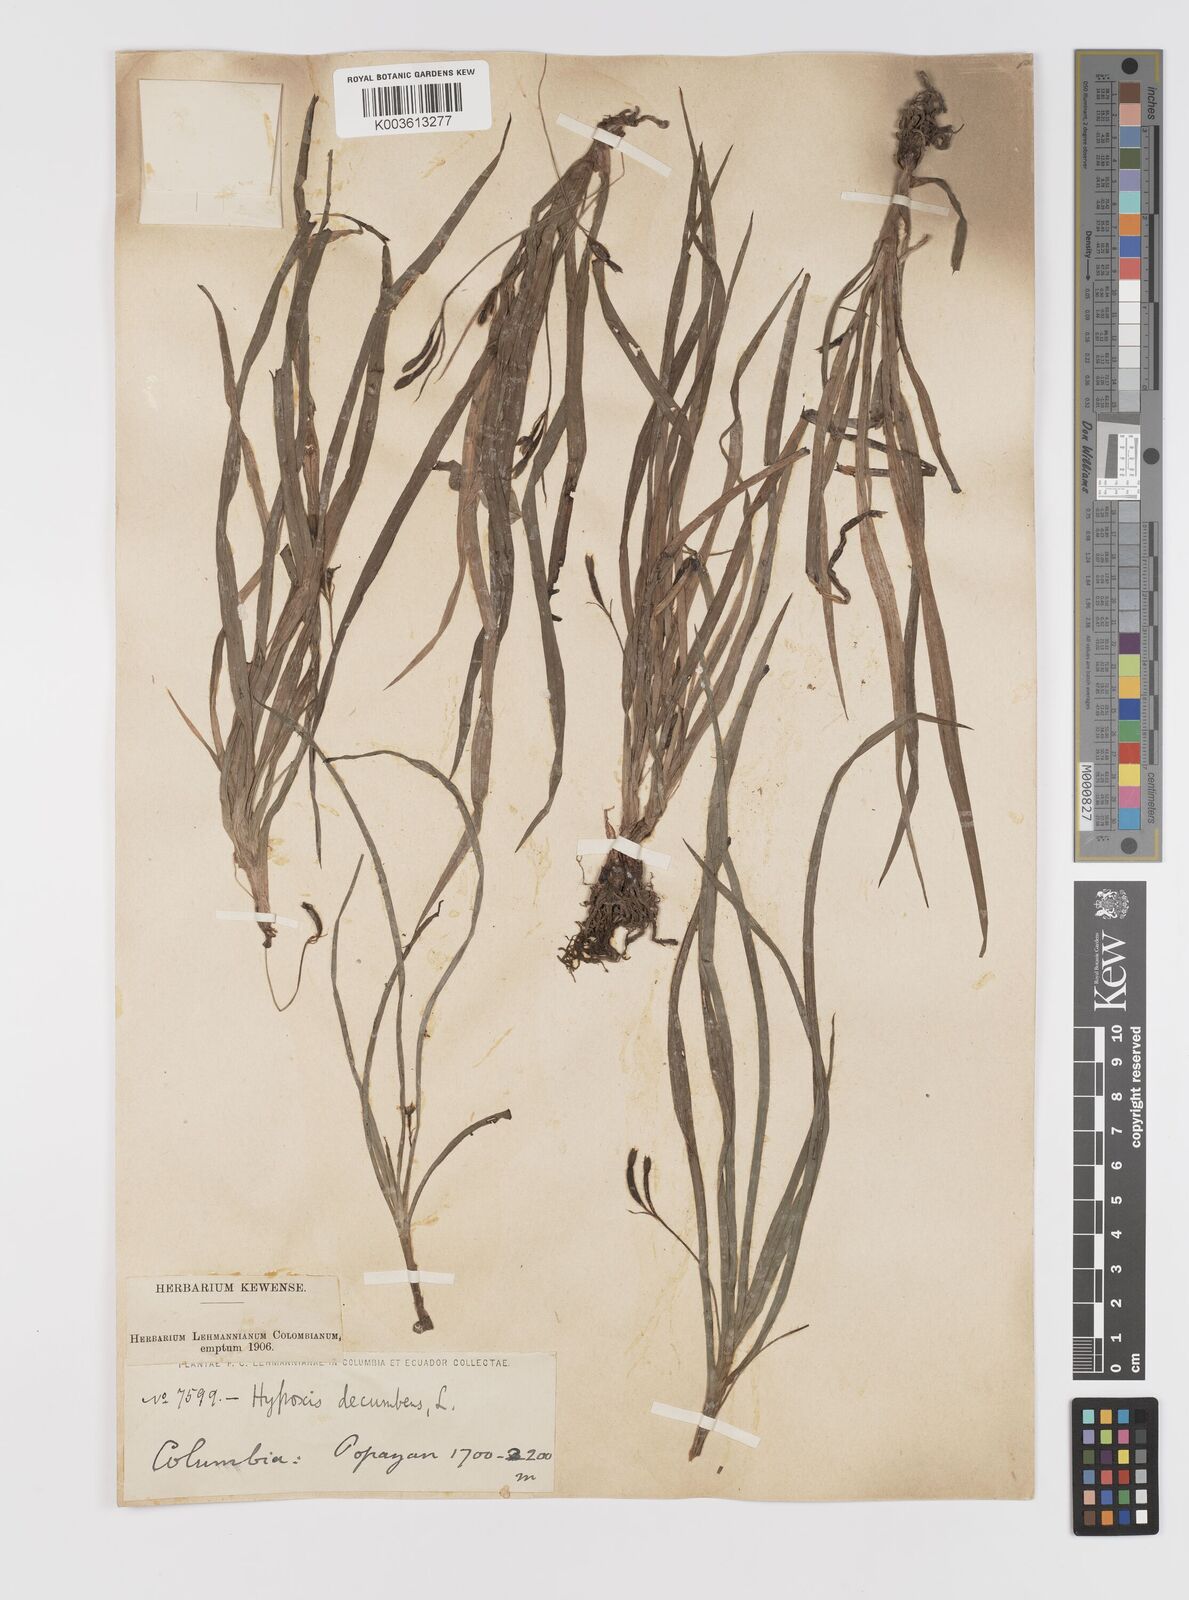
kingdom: Plantae
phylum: Tracheophyta
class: Liliopsida
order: Asparagales
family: Hypoxidaceae
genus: Hypoxis
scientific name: Hypoxis decumbens
